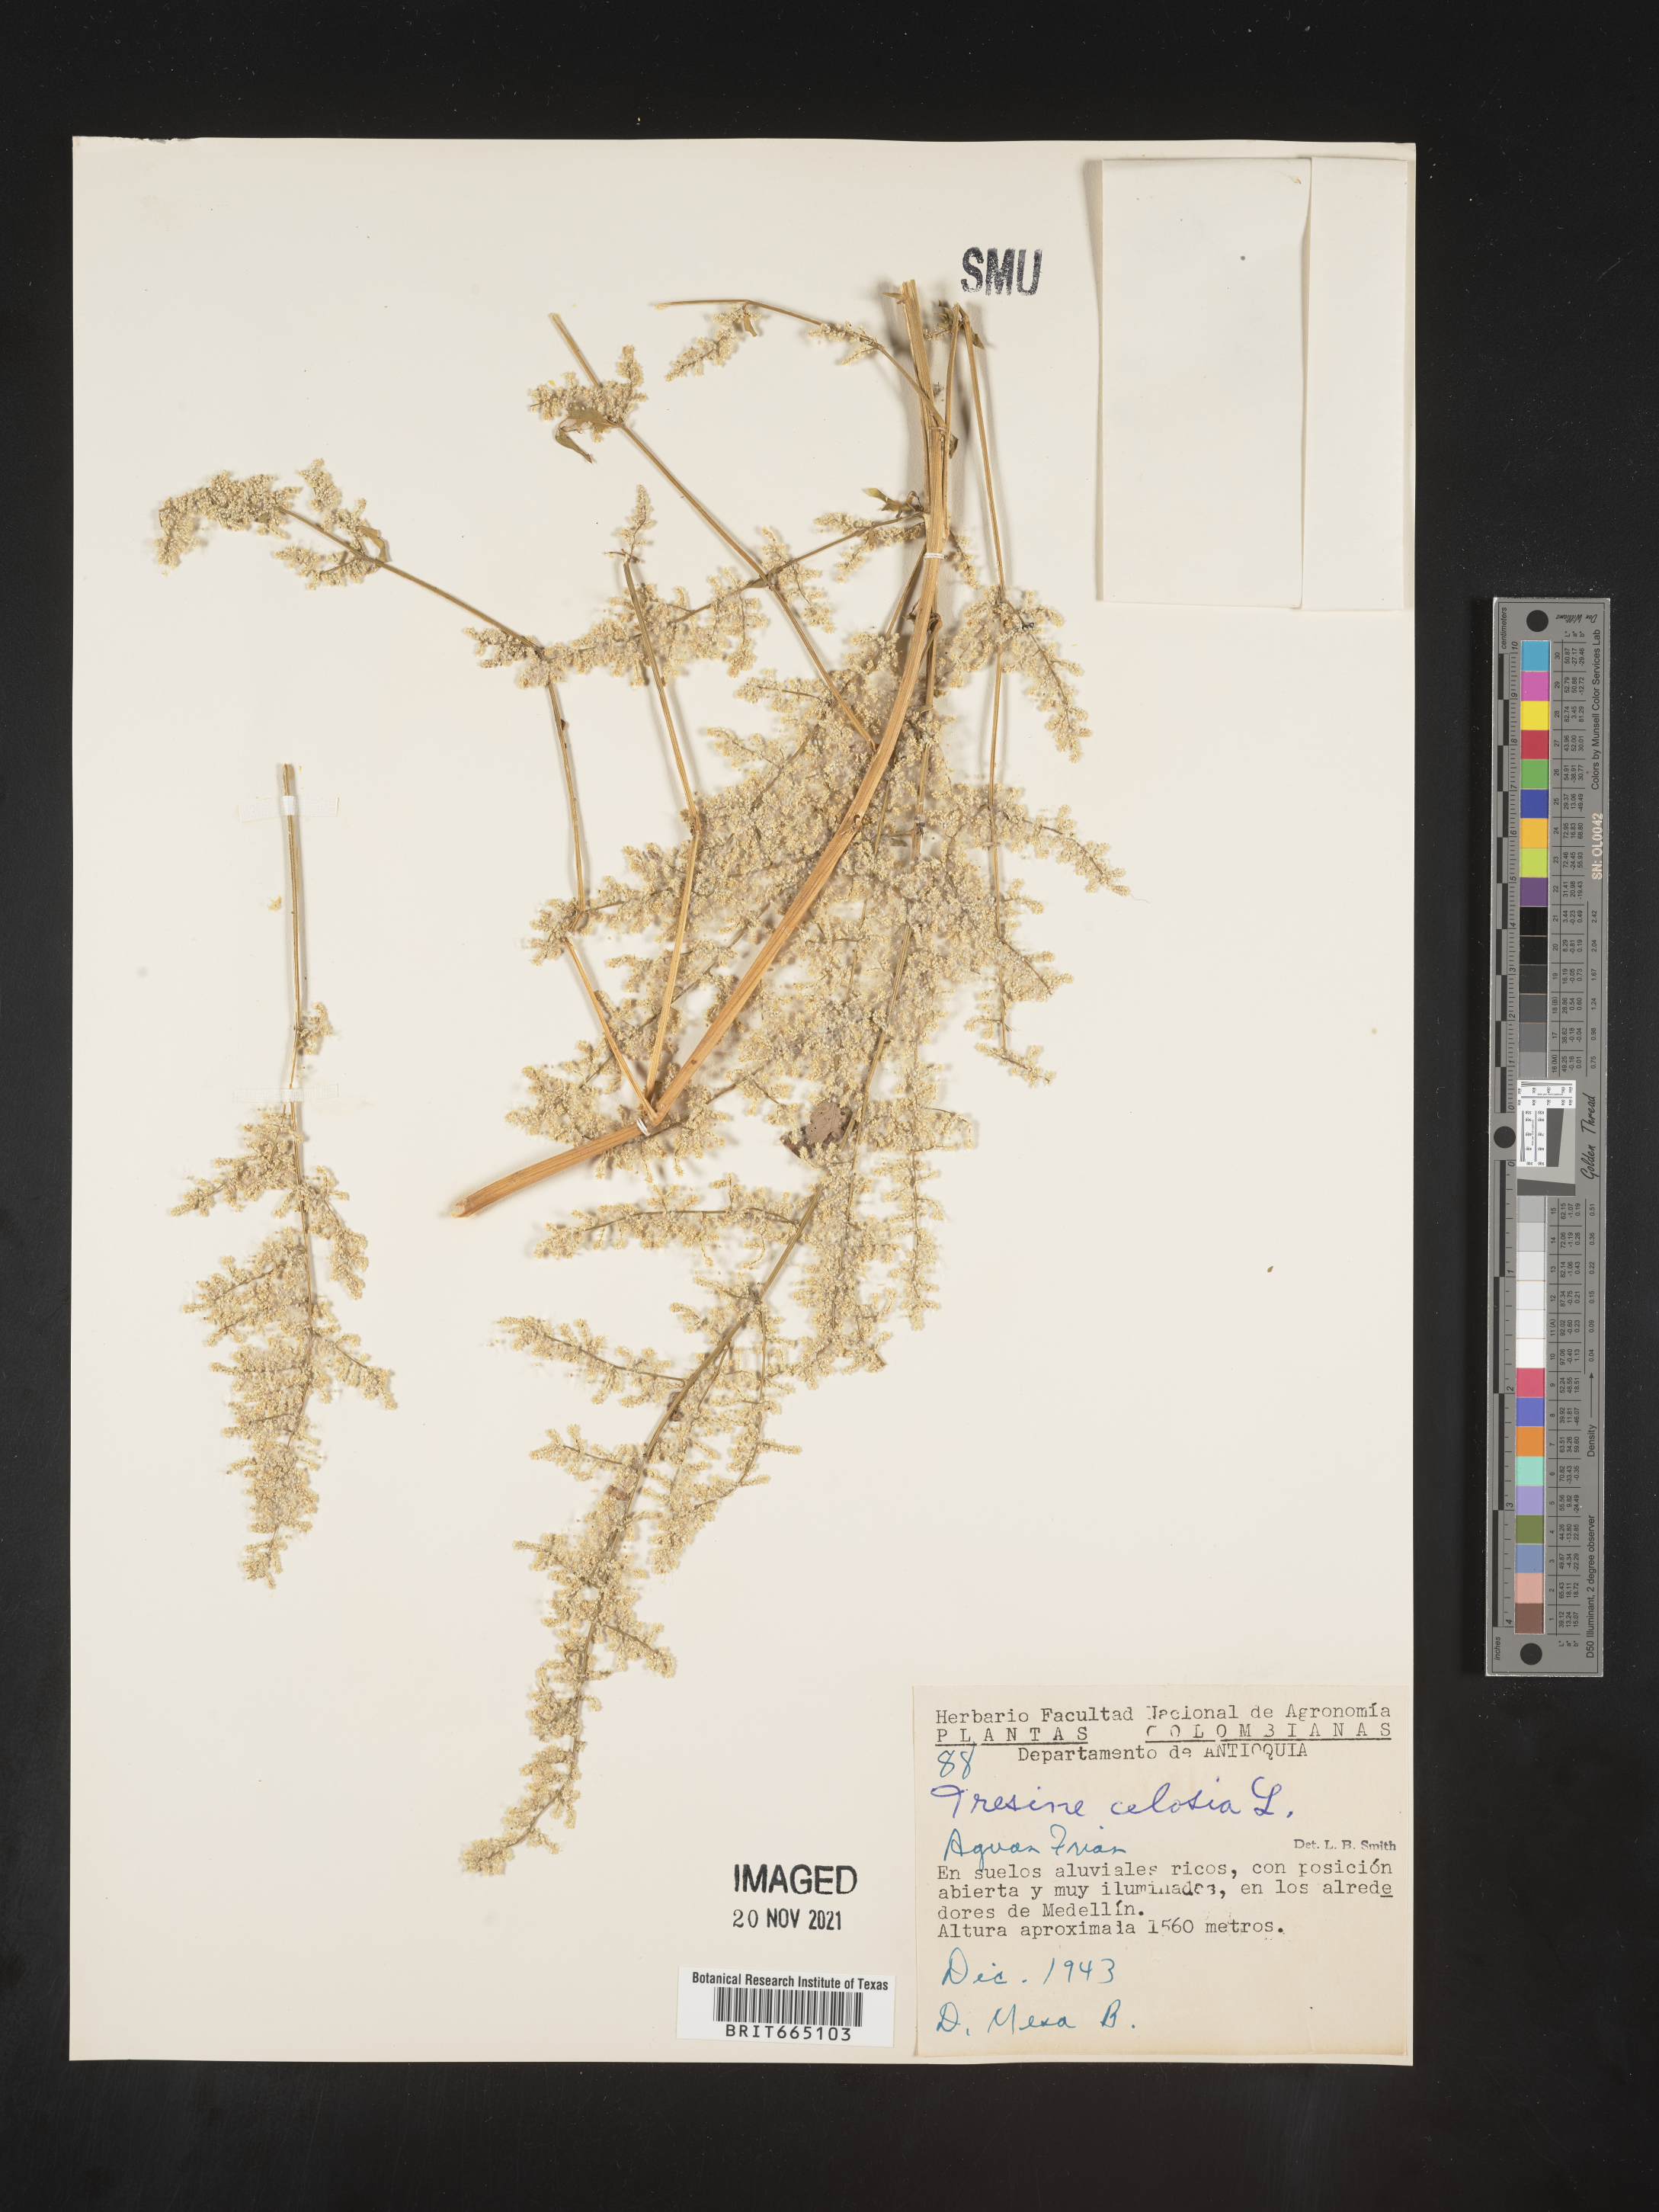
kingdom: Plantae
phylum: Tracheophyta
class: Magnoliopsida
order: Caryophyllales
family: Amaranthaceae
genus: Iresine
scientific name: Iresine
